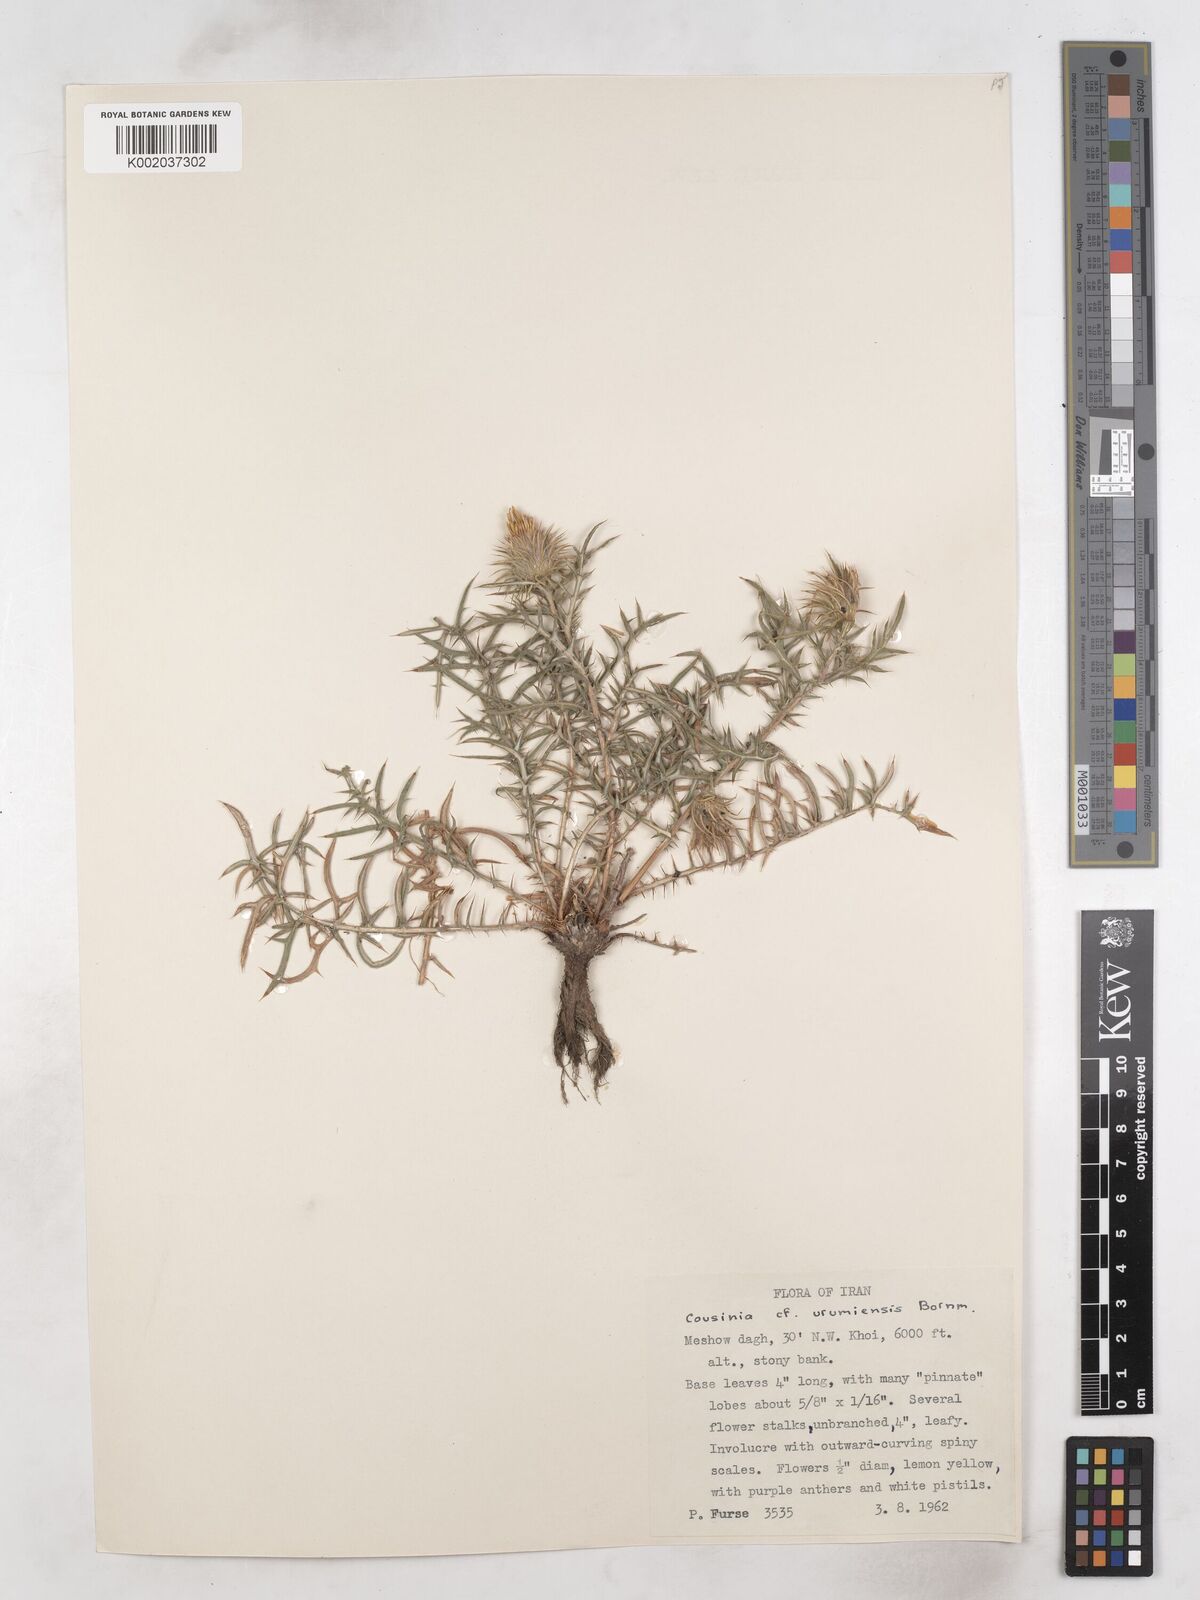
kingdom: Plantae
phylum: Tracheophyta
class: Magnoliopsida
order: Asterales
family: Asteraceae
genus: Cousinia
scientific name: Cousinia urumiensis
